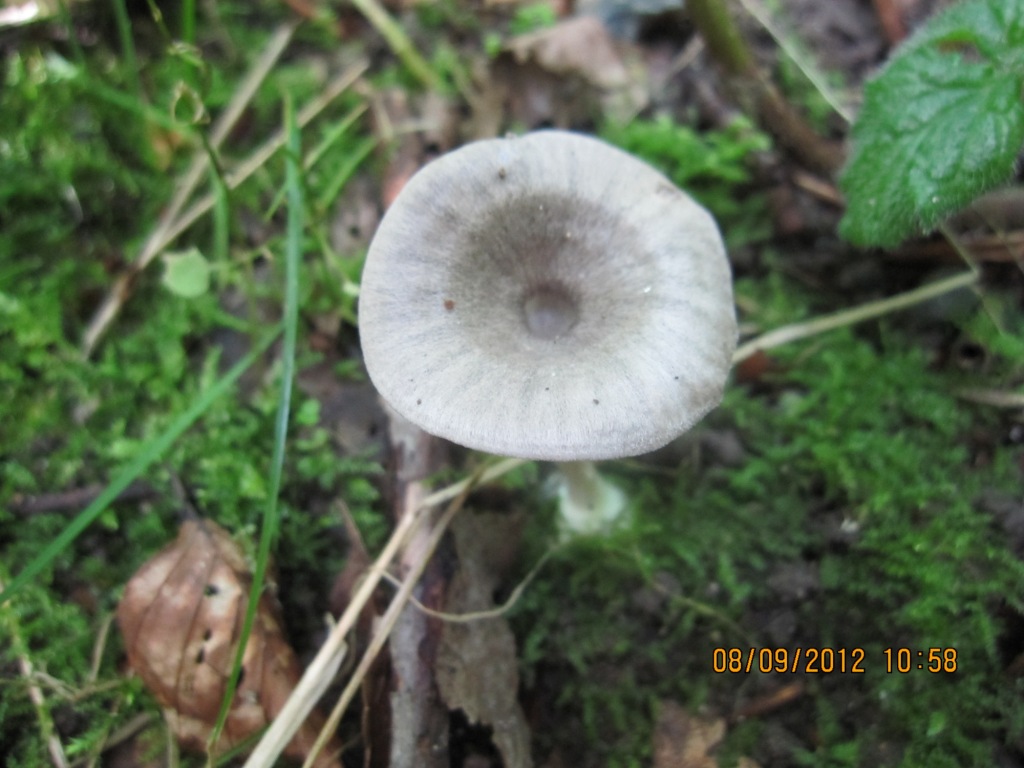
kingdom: Fungi
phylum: Basidiomycota
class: Agaricomycetes
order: Agaricales
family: Entolomataceae
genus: Entoloma
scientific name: Entoloma undatum
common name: bæltet rødblad
